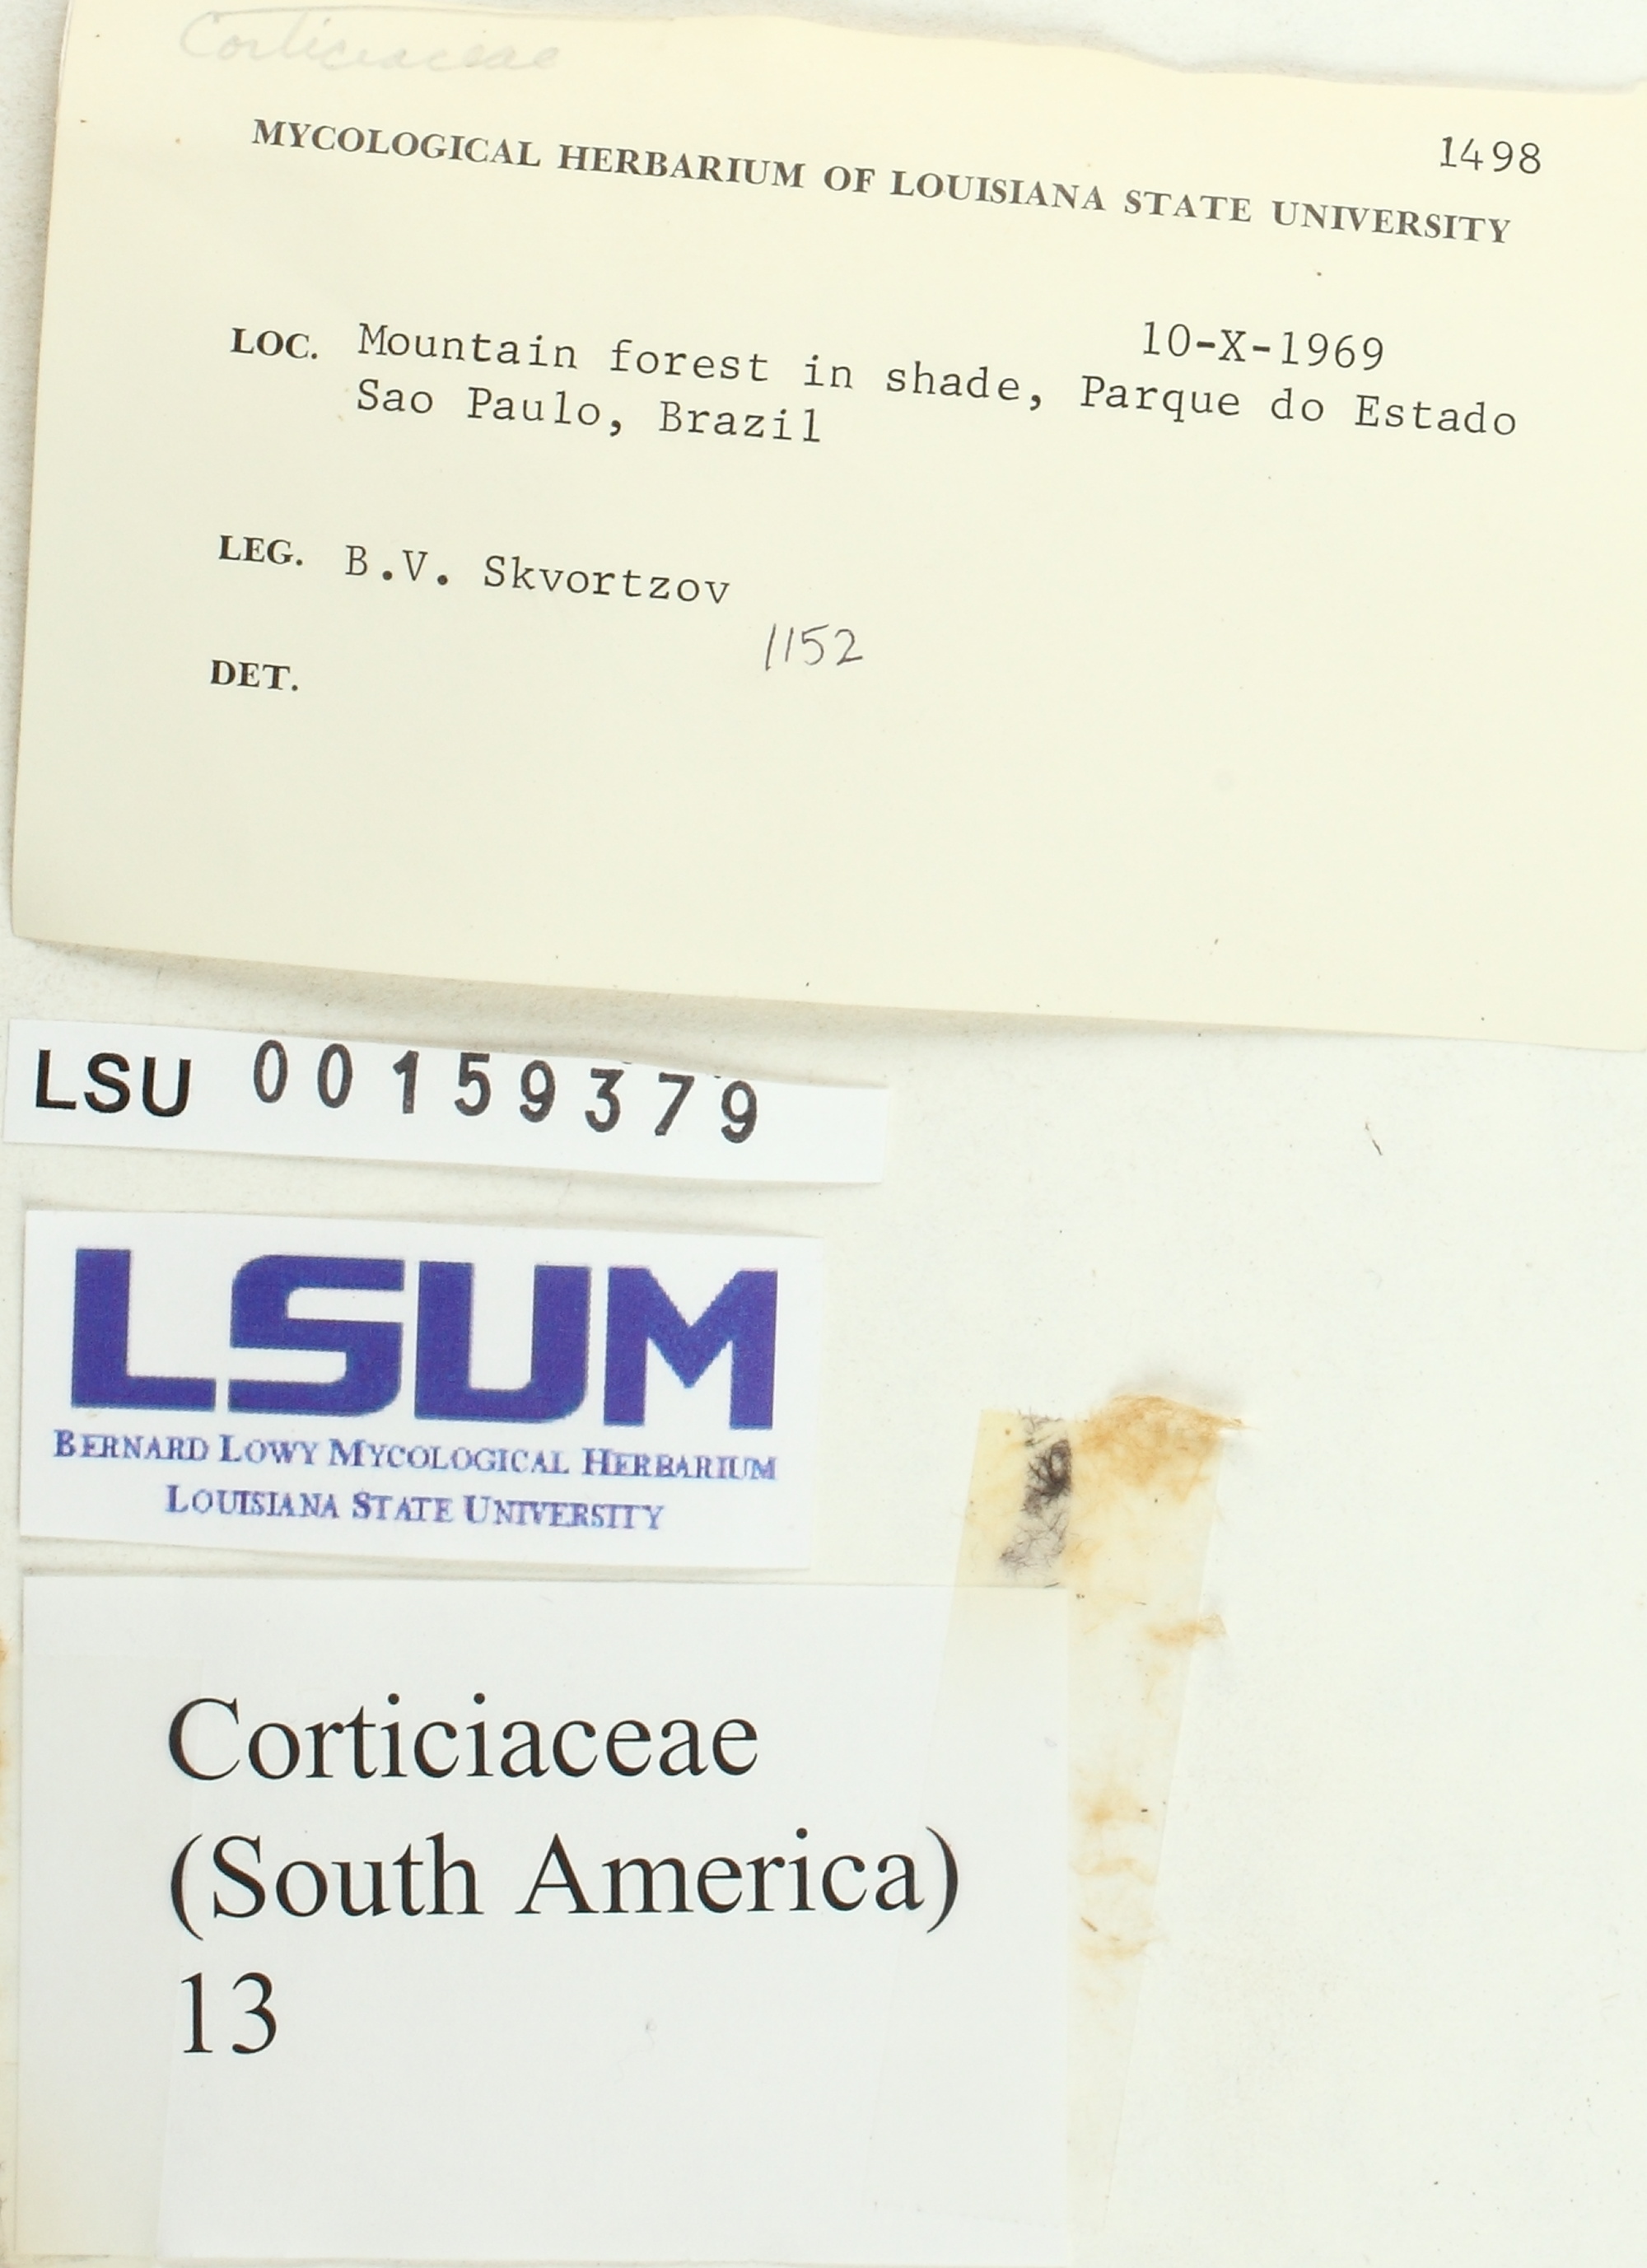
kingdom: Fungi
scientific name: Fungi
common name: Fungi
